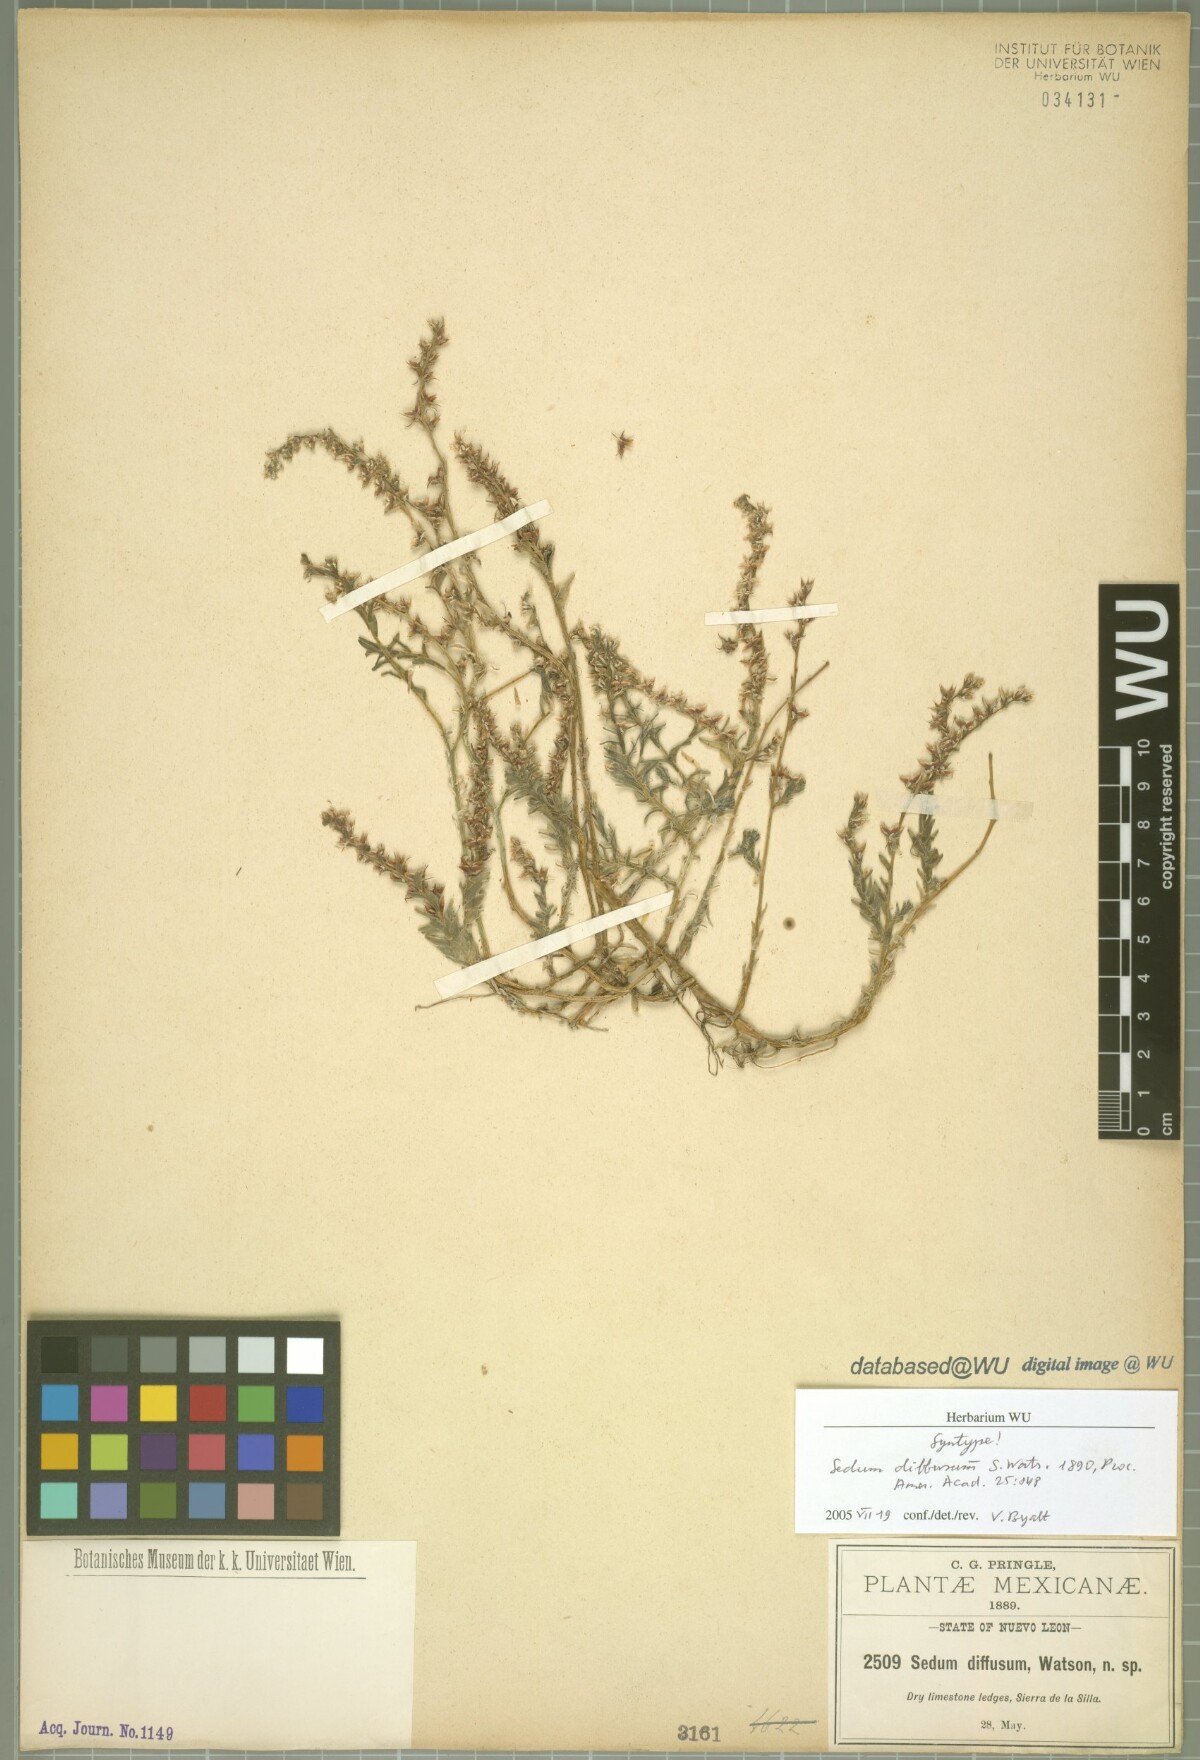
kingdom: Plantae
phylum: Tracheophyta
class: Magnoliopsida
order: Saxifragales
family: Crassulaceae
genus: Sedum
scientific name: Sedum diffusum
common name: Stonecrop
